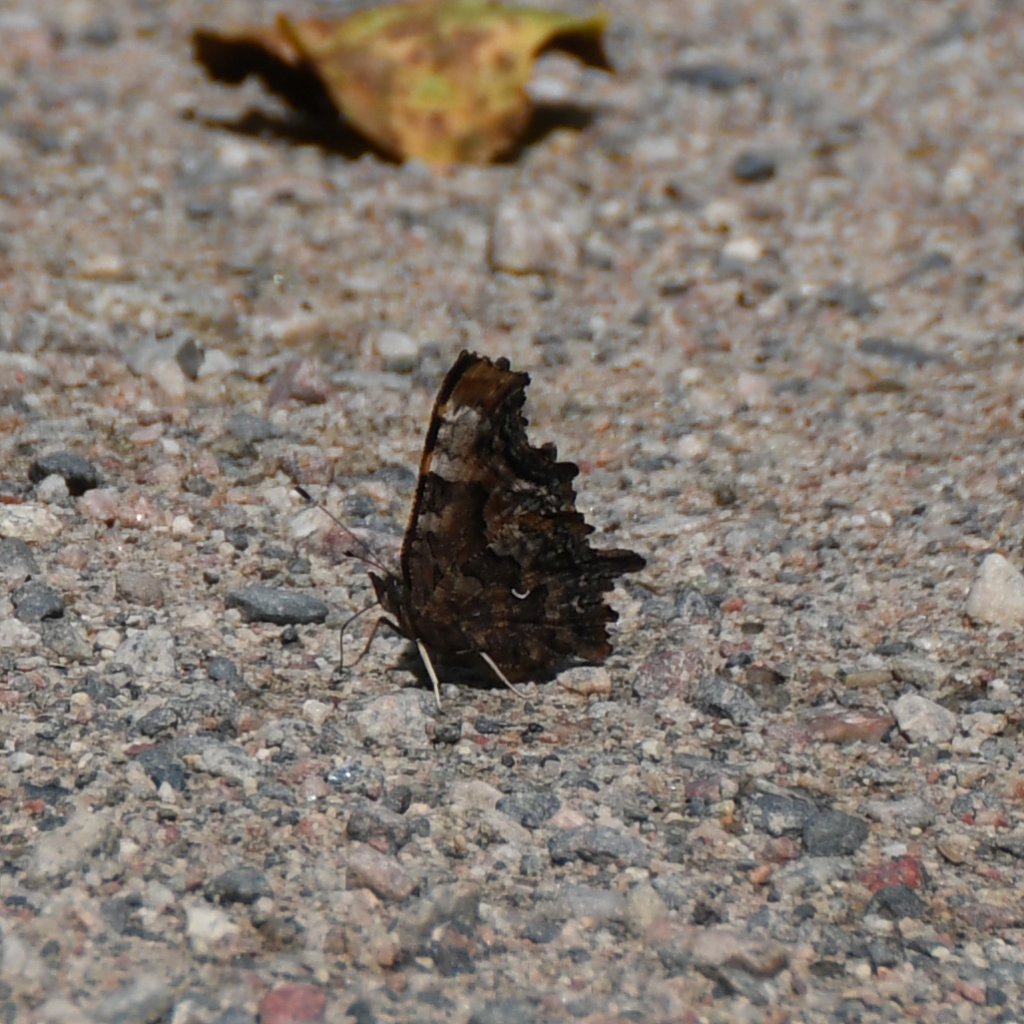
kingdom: Animalia
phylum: Arthropoda
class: Insecta
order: Lepidoptera
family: Nymphalidae
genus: Polygonia
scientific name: Polygonia faunus
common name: Green Comma
